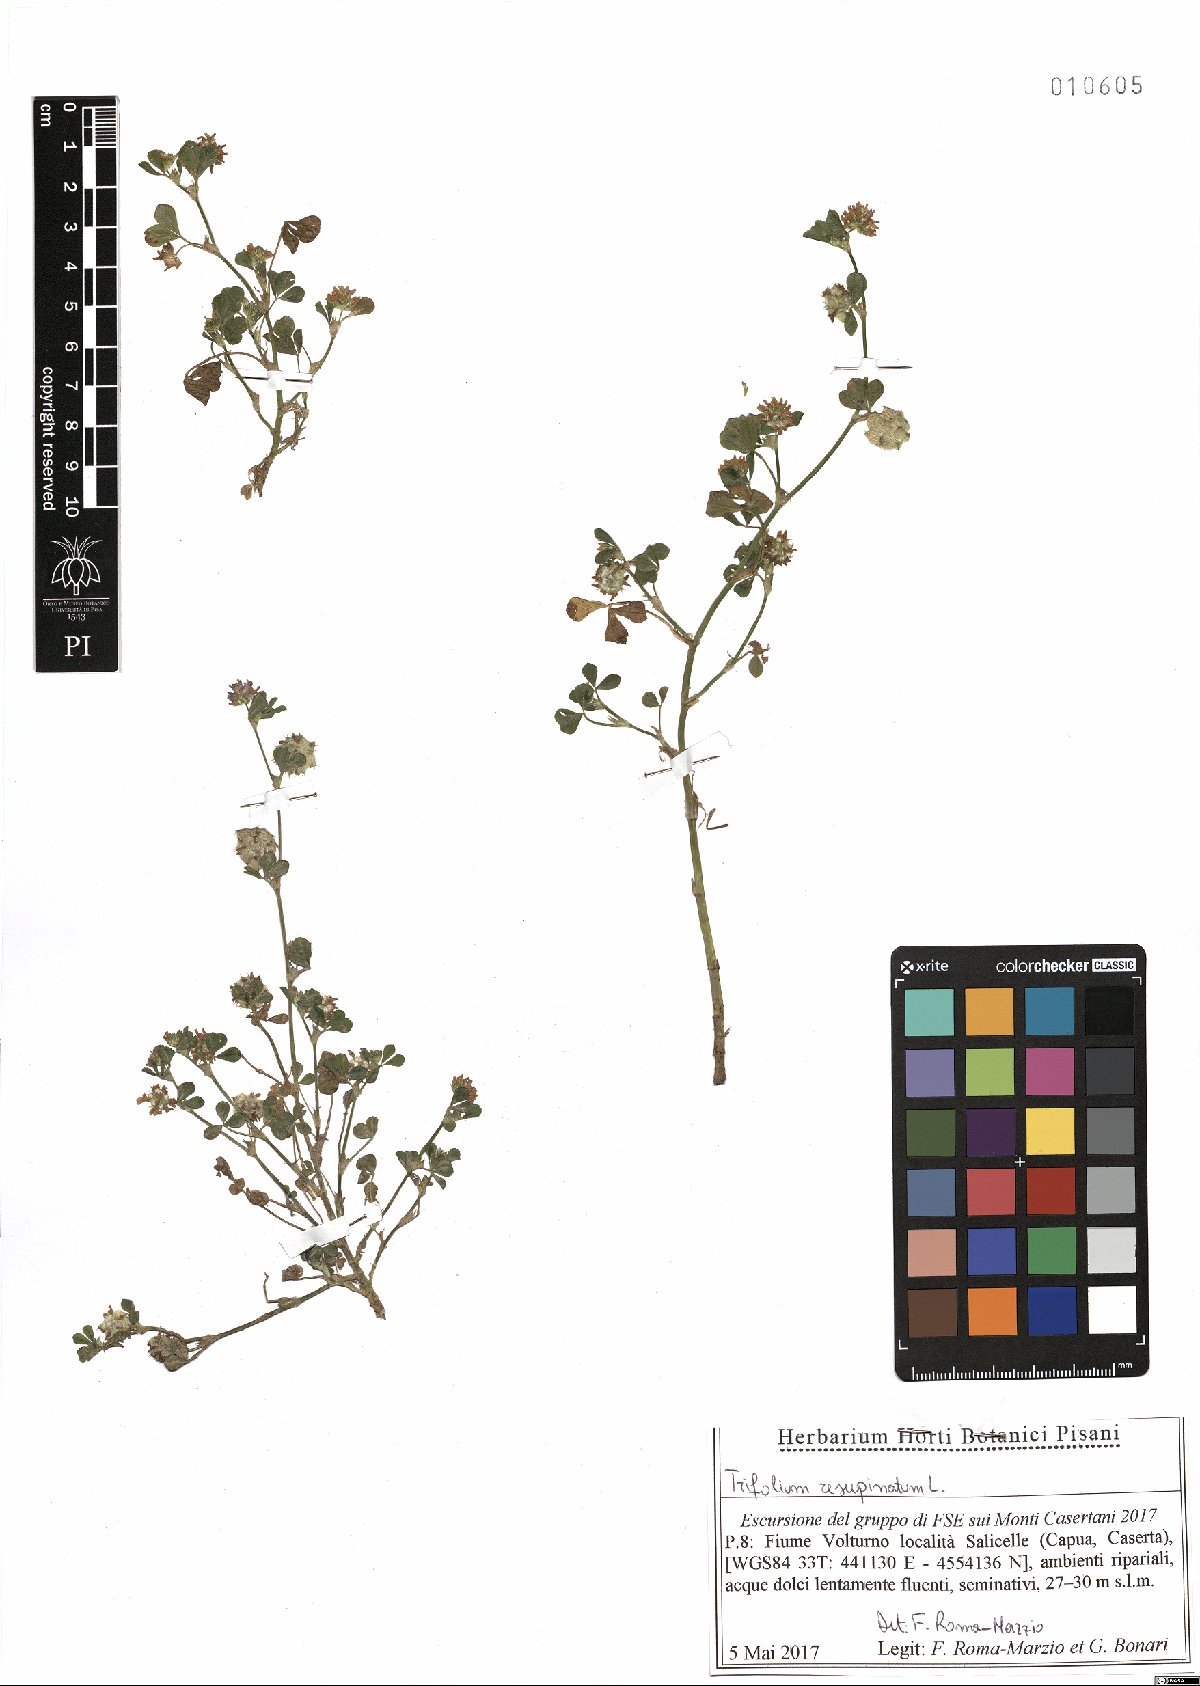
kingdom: Plantae
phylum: Tracheophyta
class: Magnoliopsida
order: Fabales
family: Fabaceae
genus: Trifolium
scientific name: Trifolium resupinatum
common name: Reversed clover
